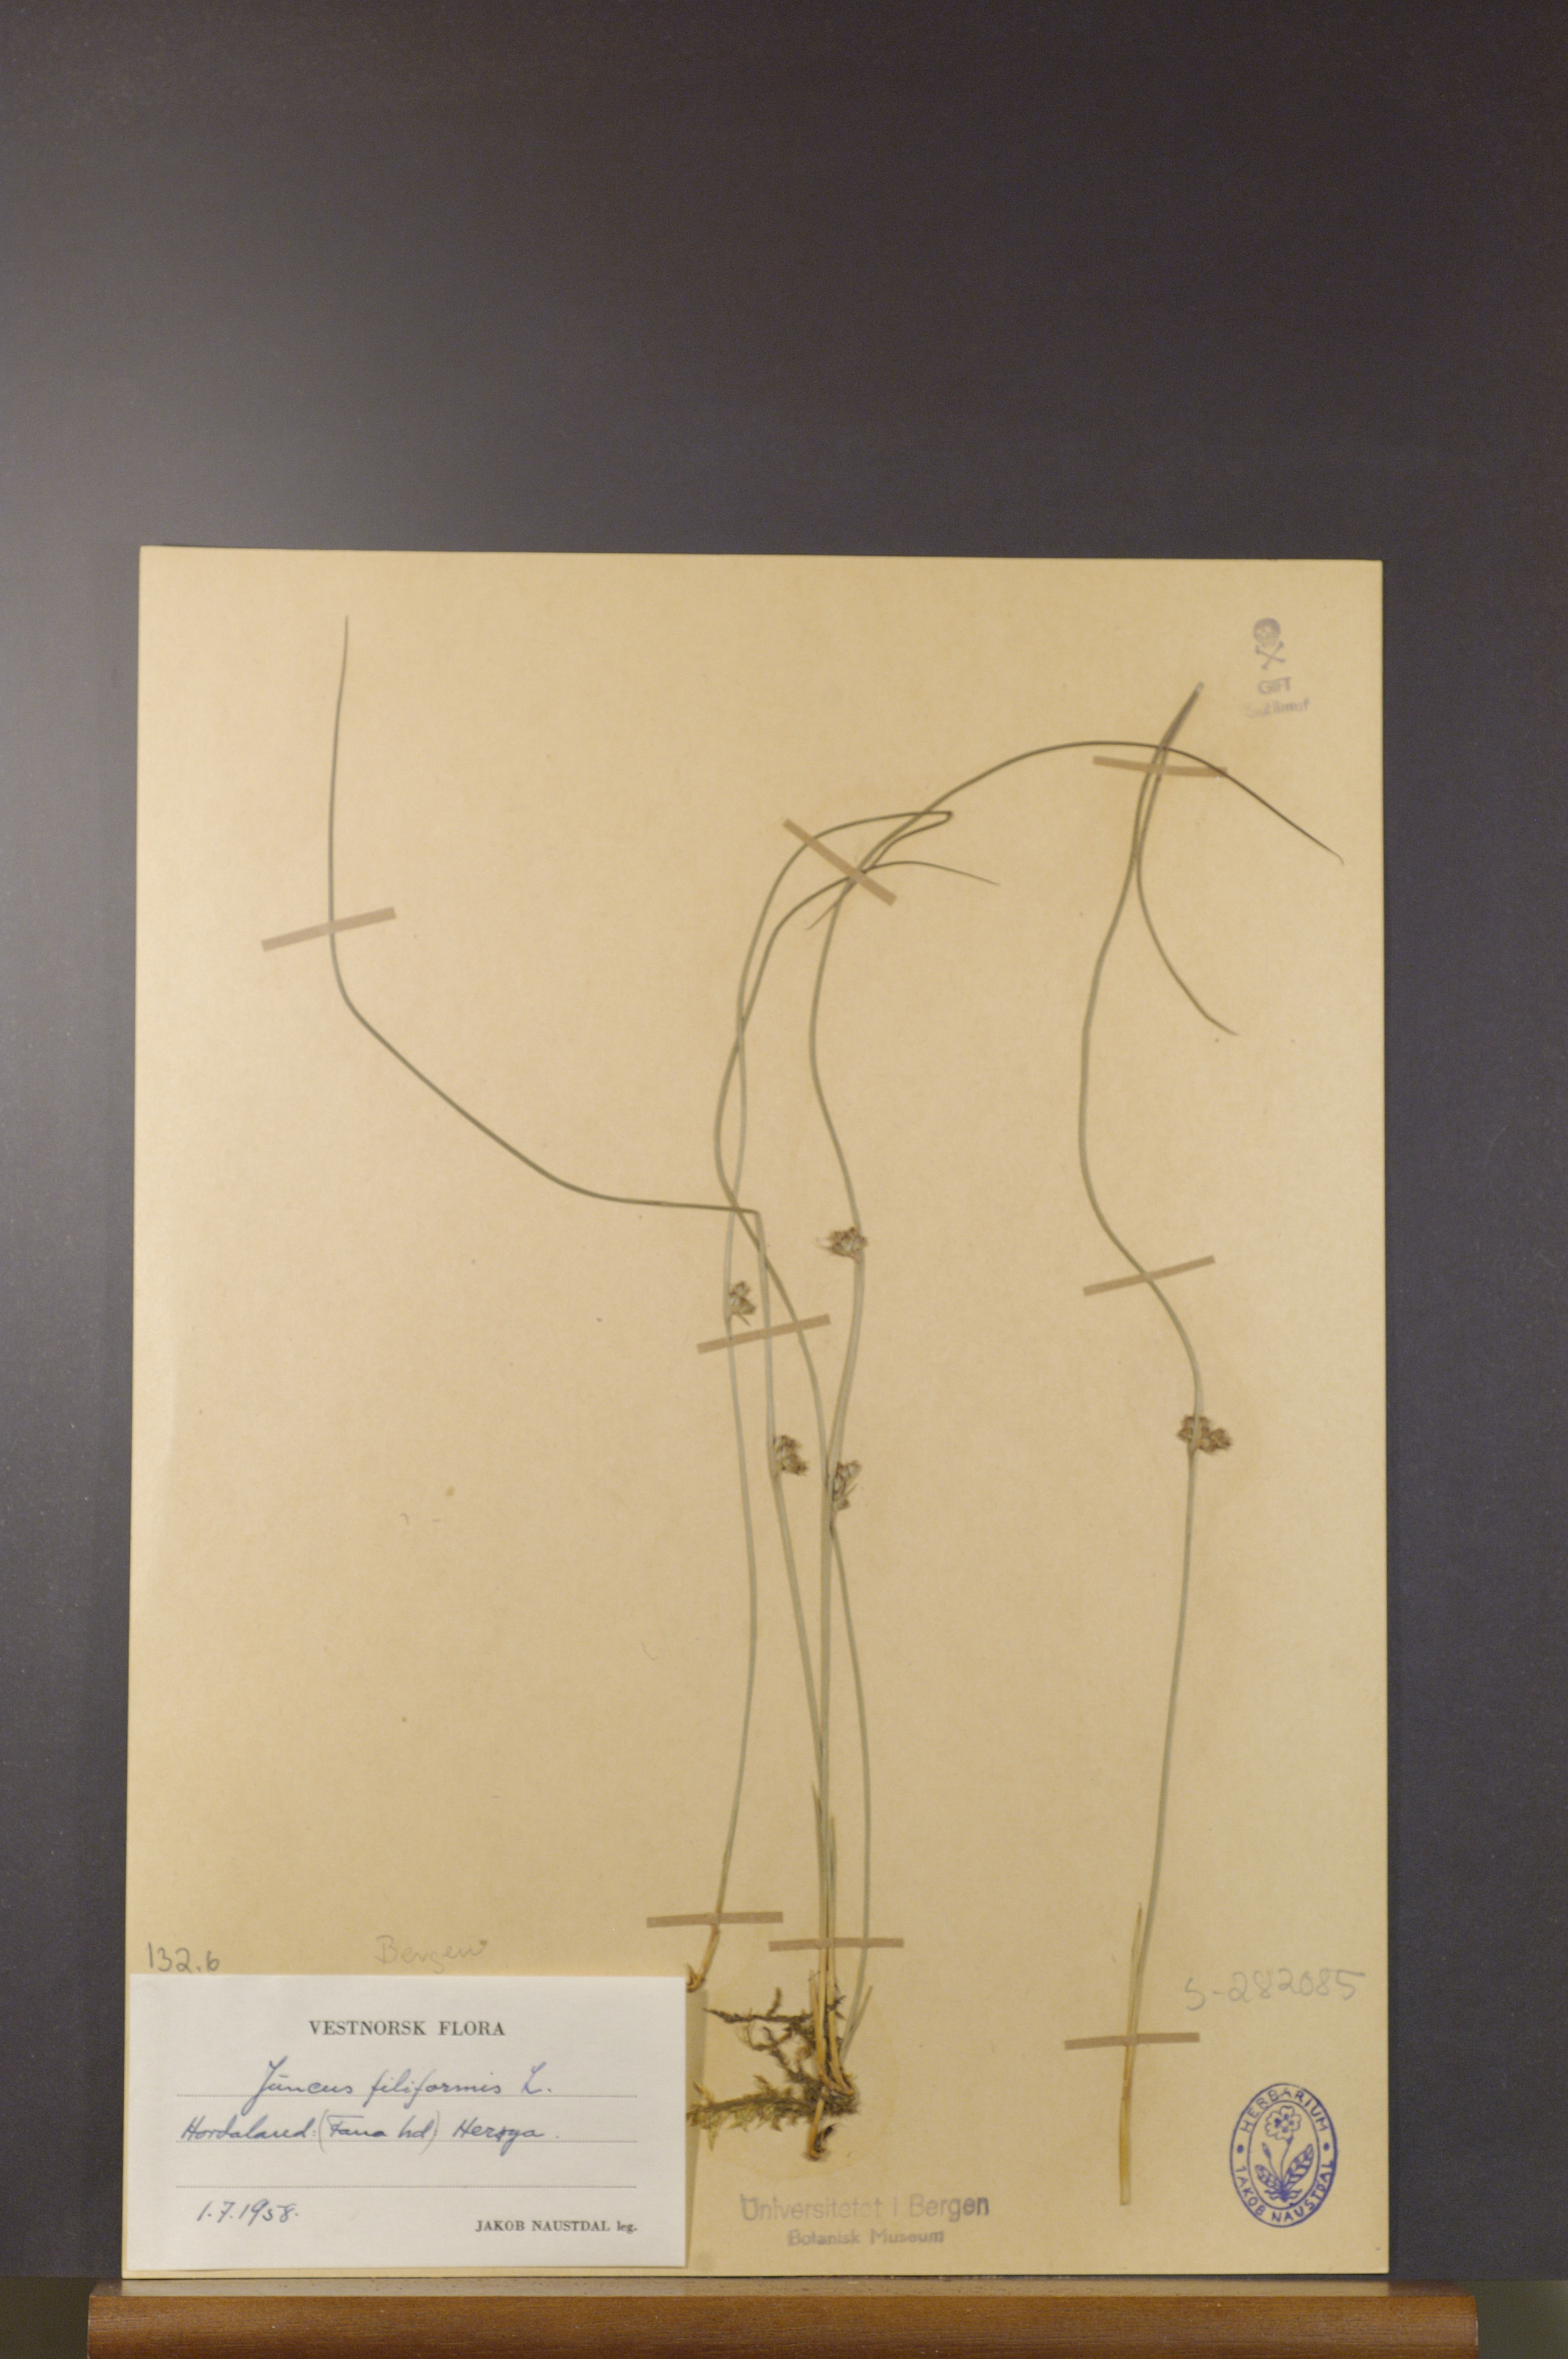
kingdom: Plantae
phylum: Tracheophyta
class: Liliopsida
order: Poales
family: Juncaceae
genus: Juncus
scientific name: Juncus filiformis
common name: Thread rush
